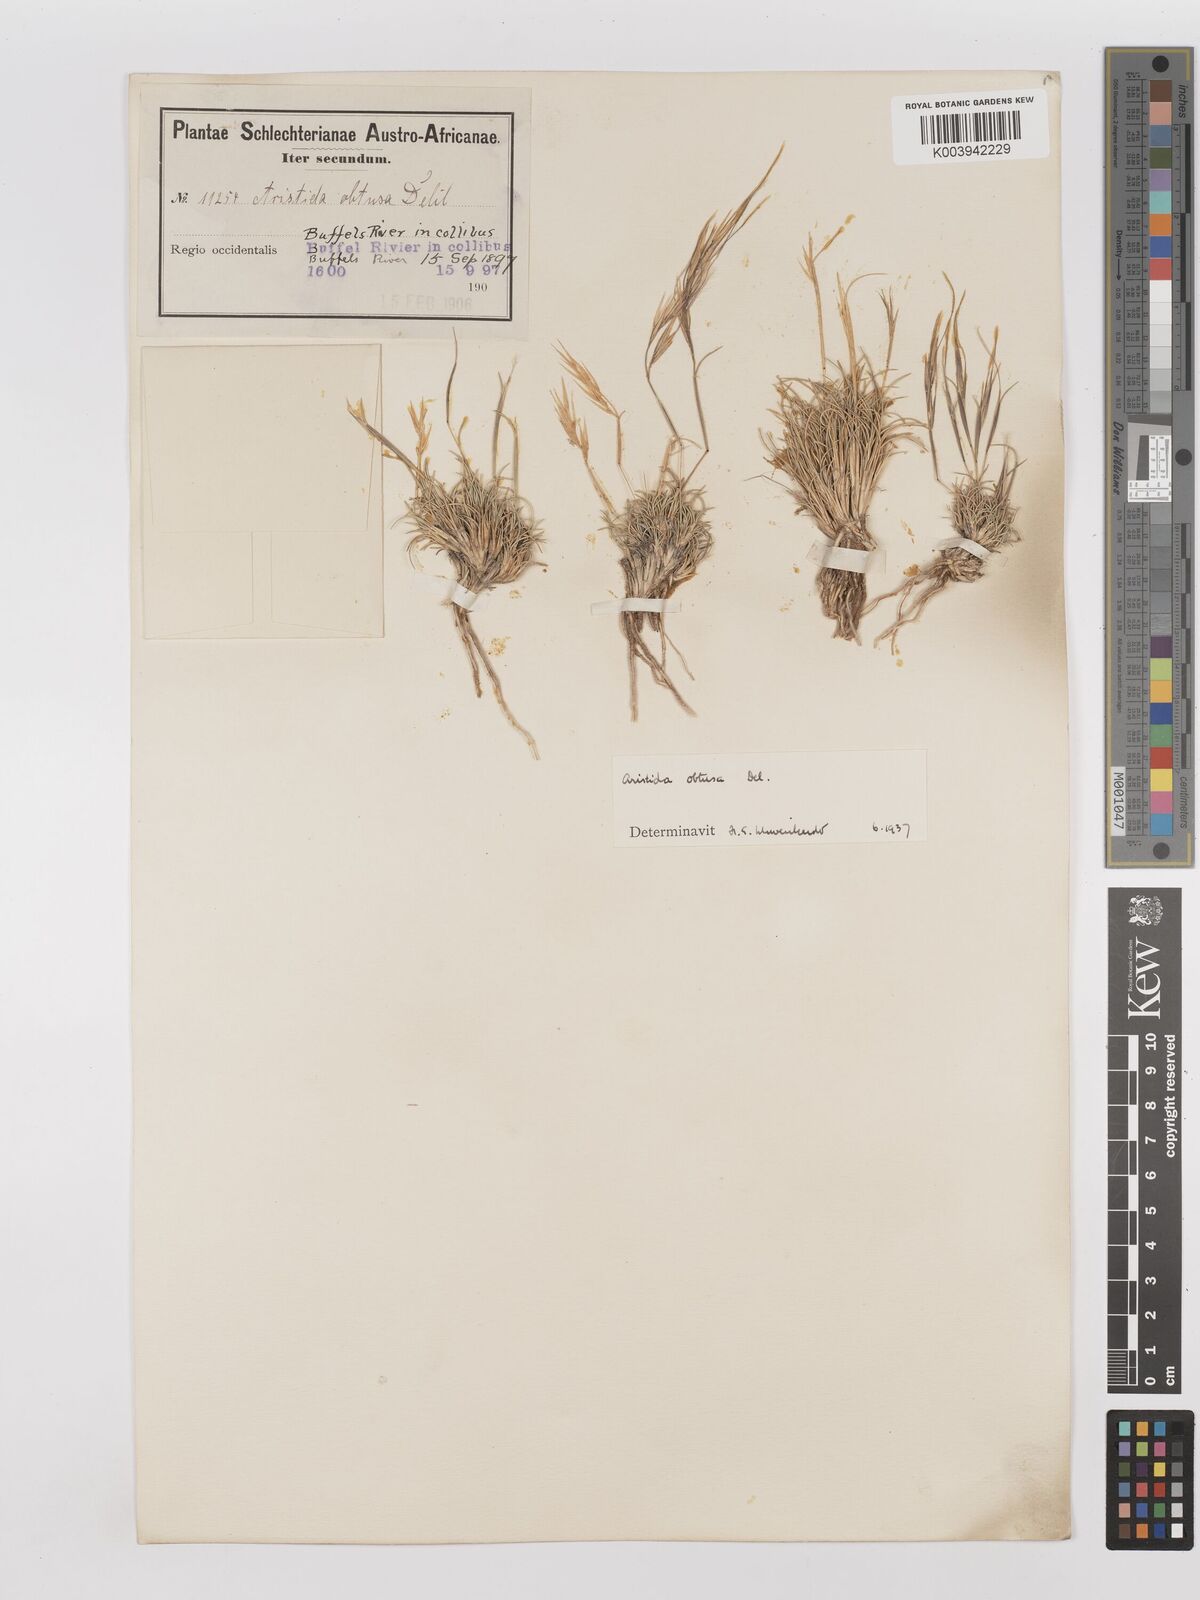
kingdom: Plantae
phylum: Tracheophyta
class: Liliopsida
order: Poales
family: Poaceae
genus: Stipagrostis
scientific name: Stipagrostis obtusa
